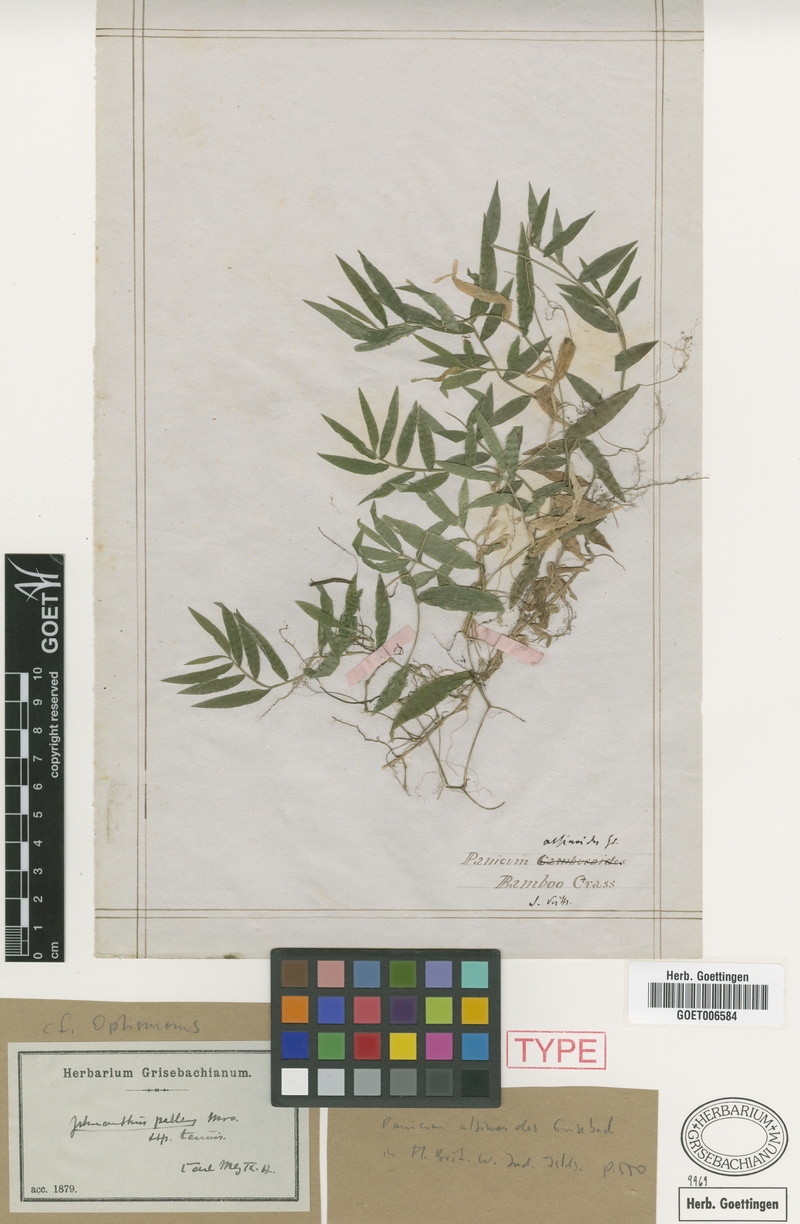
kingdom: Plantae
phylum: Tracheophyta
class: Liliopsida
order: Poales
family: Poaceae
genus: Ichnanthus
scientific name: Ichnanthus tenuis
